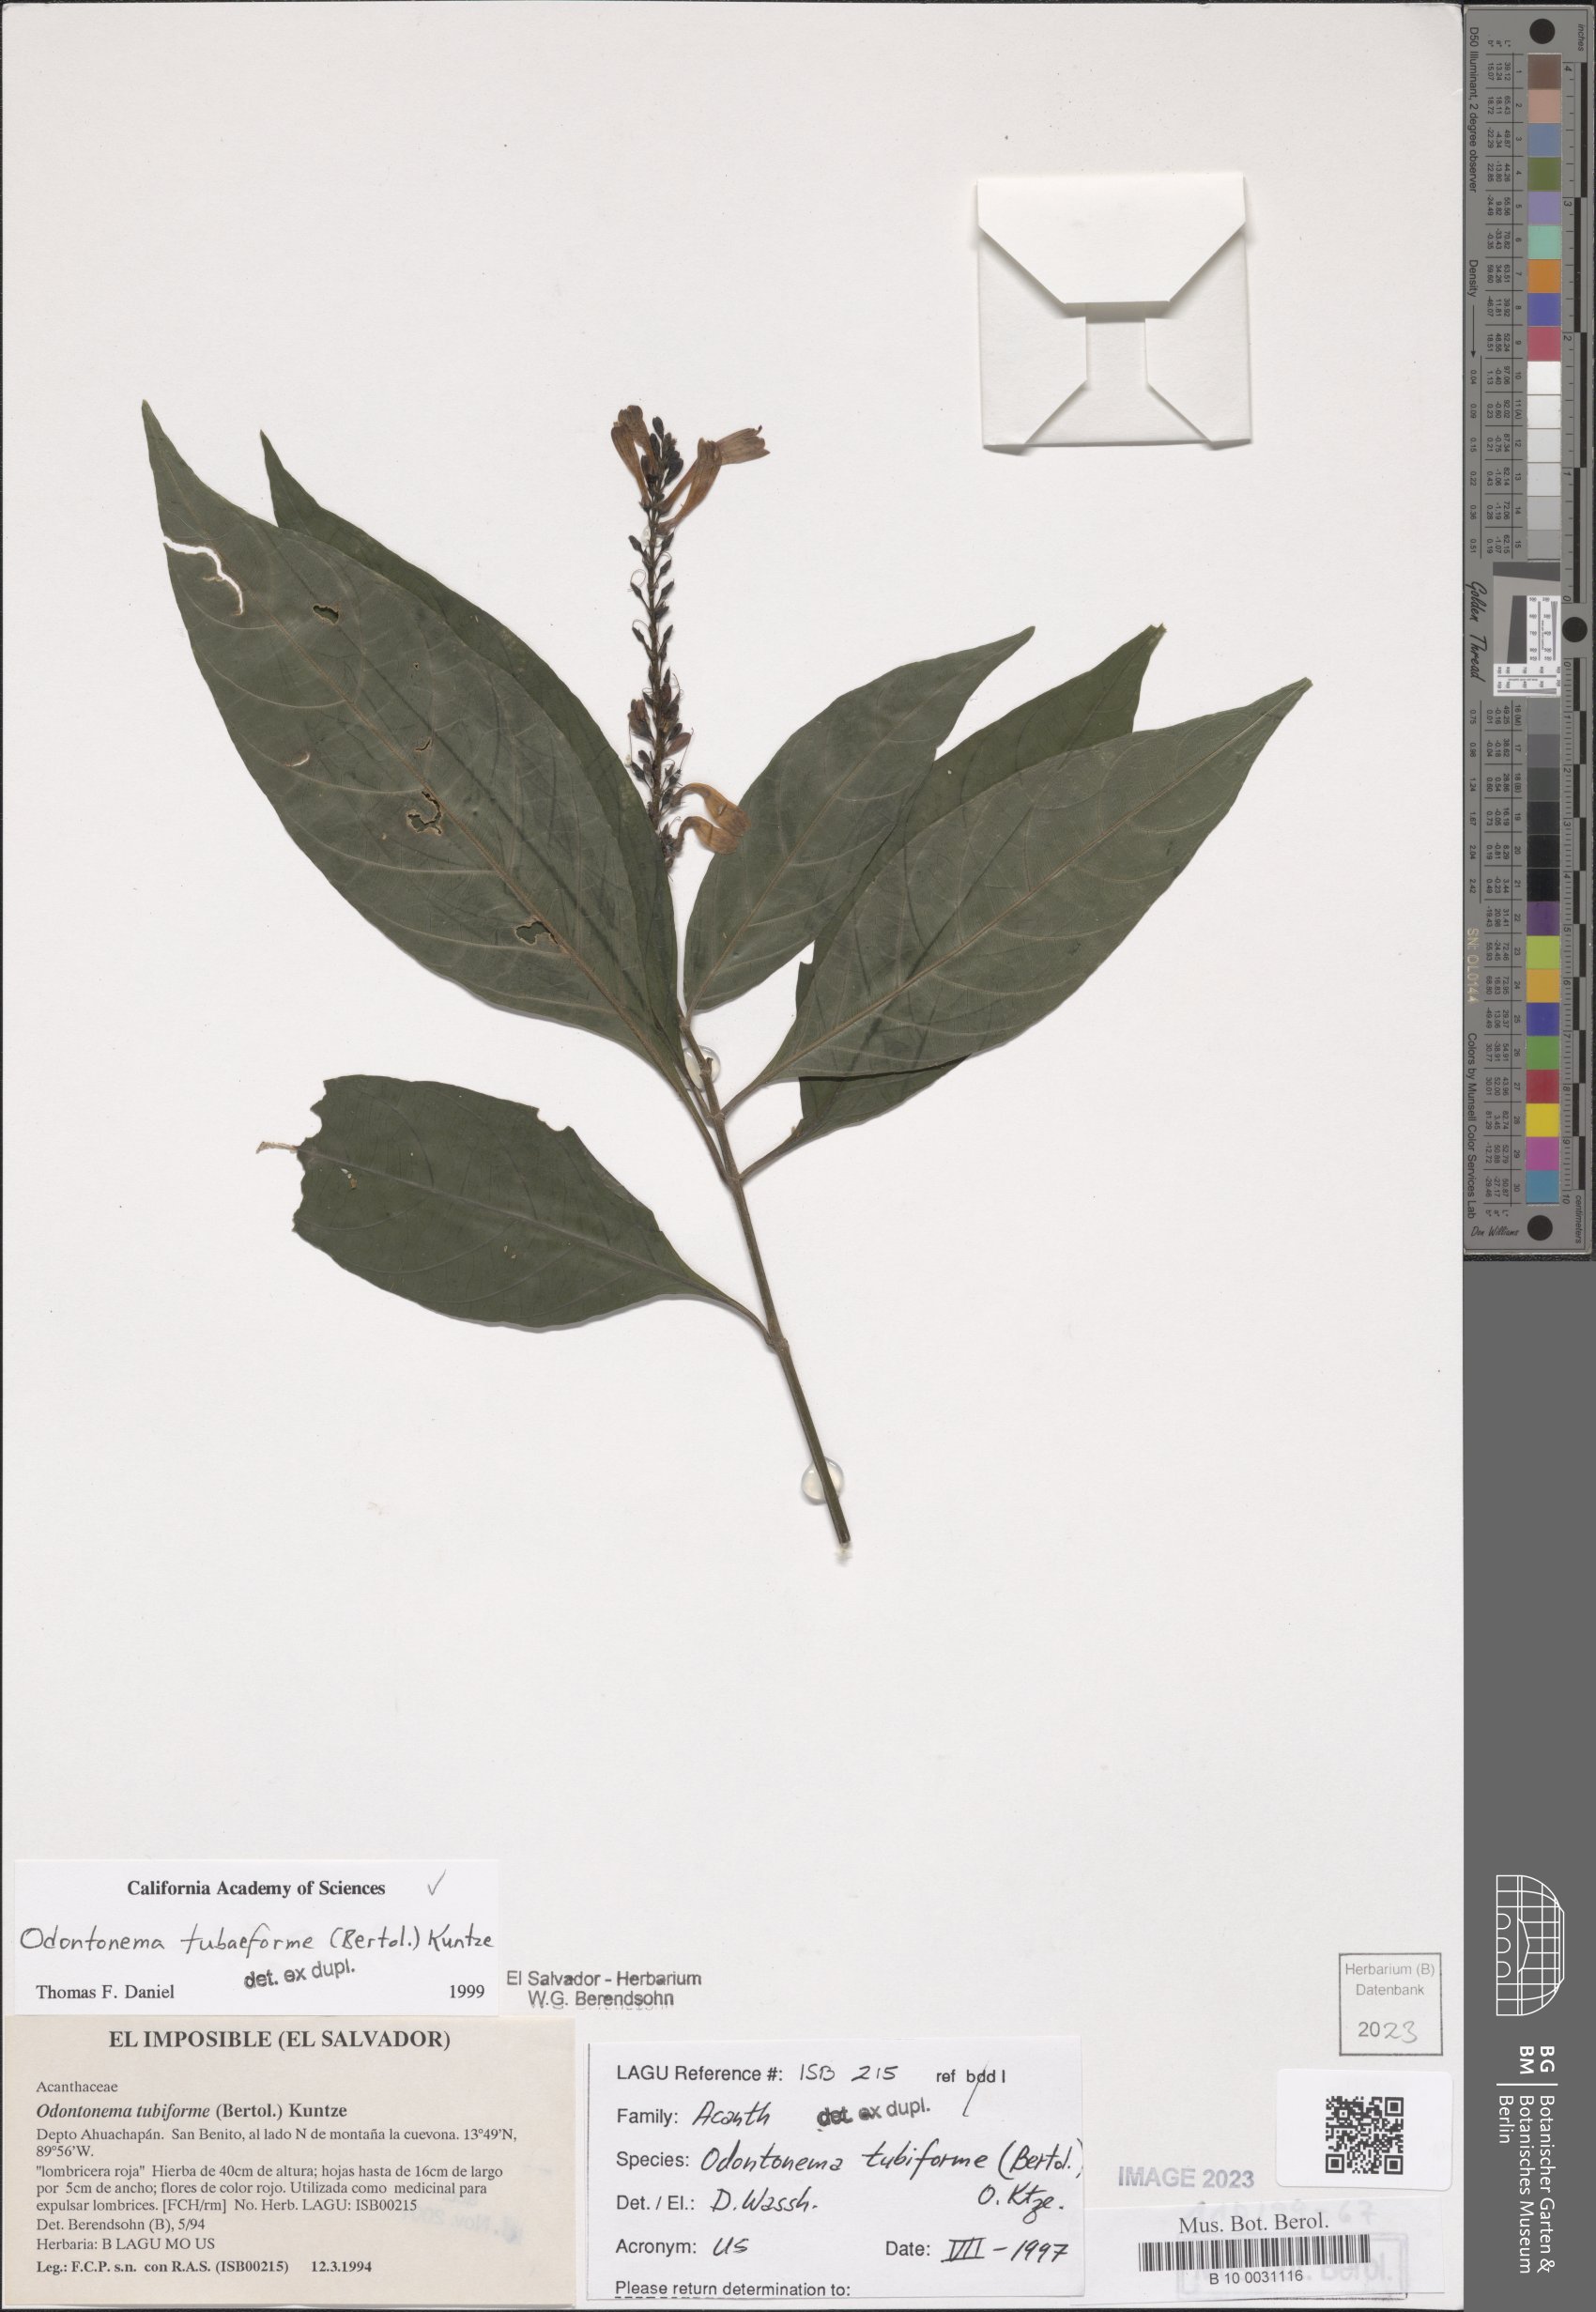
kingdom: Plantae
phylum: Tracheophyta
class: Magnoliopsida
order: Lamiales
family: Acanthaceae
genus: Odontonema
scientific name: Odontonema tubaeforme
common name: Firespike
